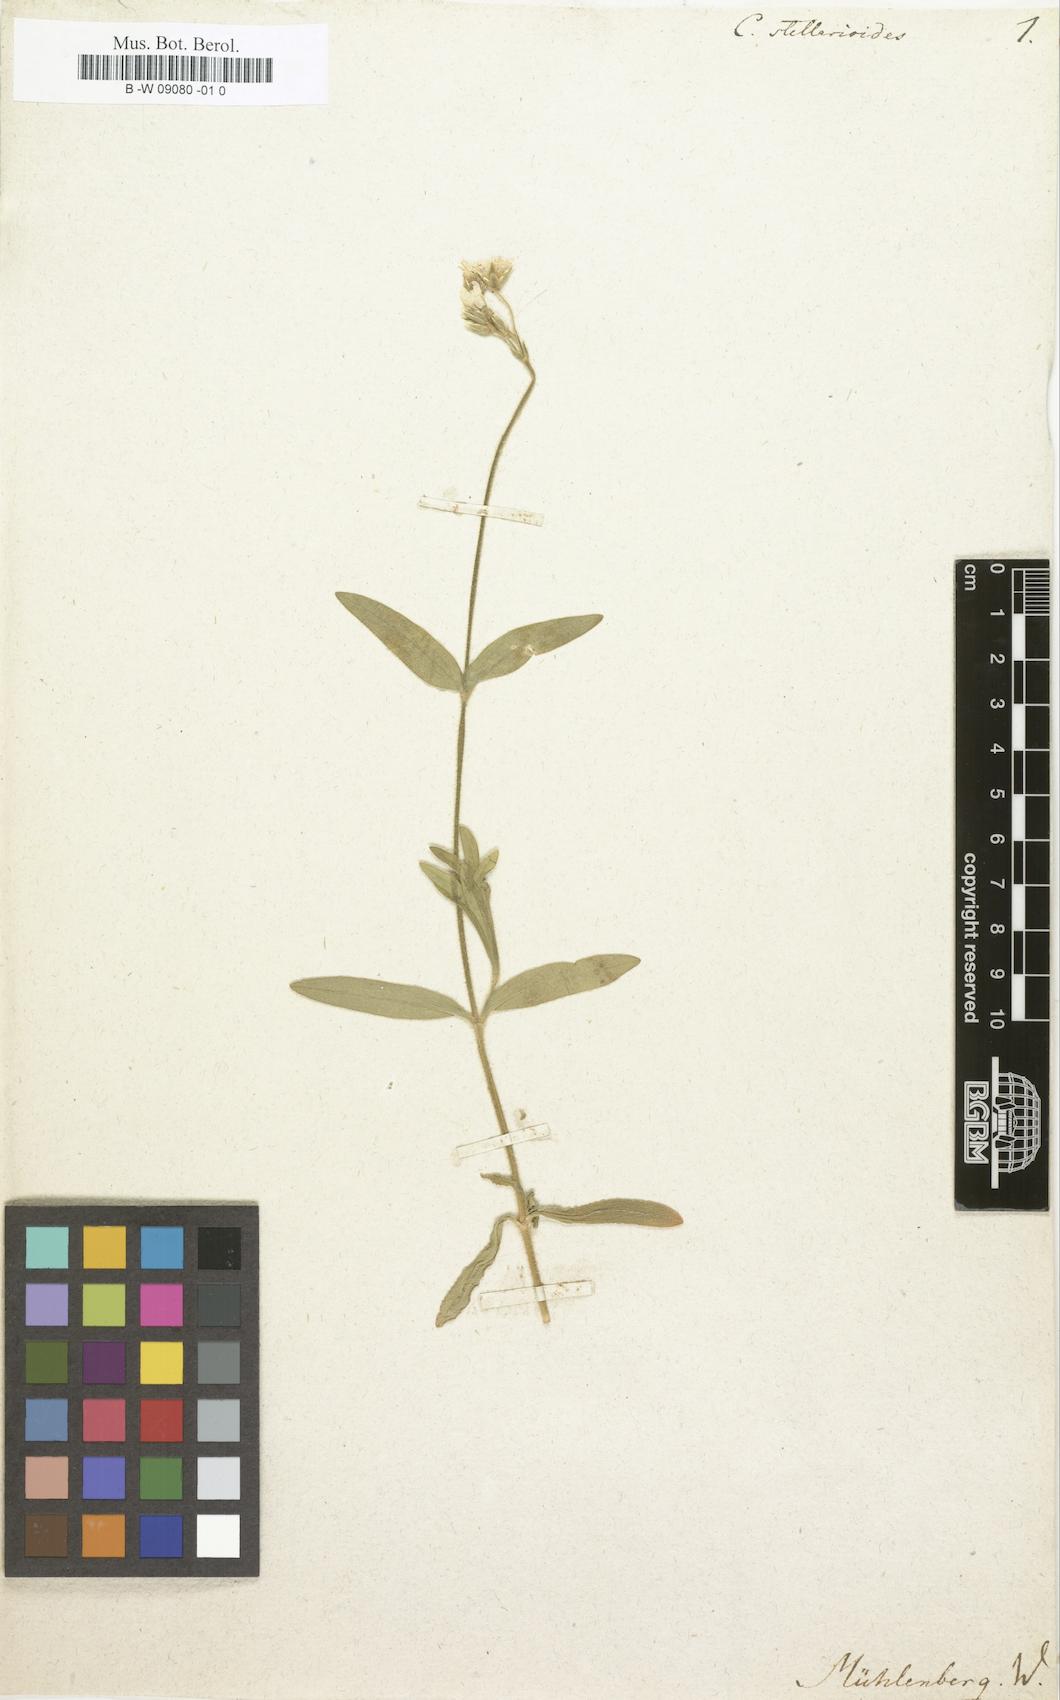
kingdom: Plantae
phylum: Tracheophyta
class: Magnoliopsida
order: Caryophyllales
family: Caryophyllaceae
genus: Cerastium
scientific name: Cerastium nutans
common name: Long-stalked chickweed
